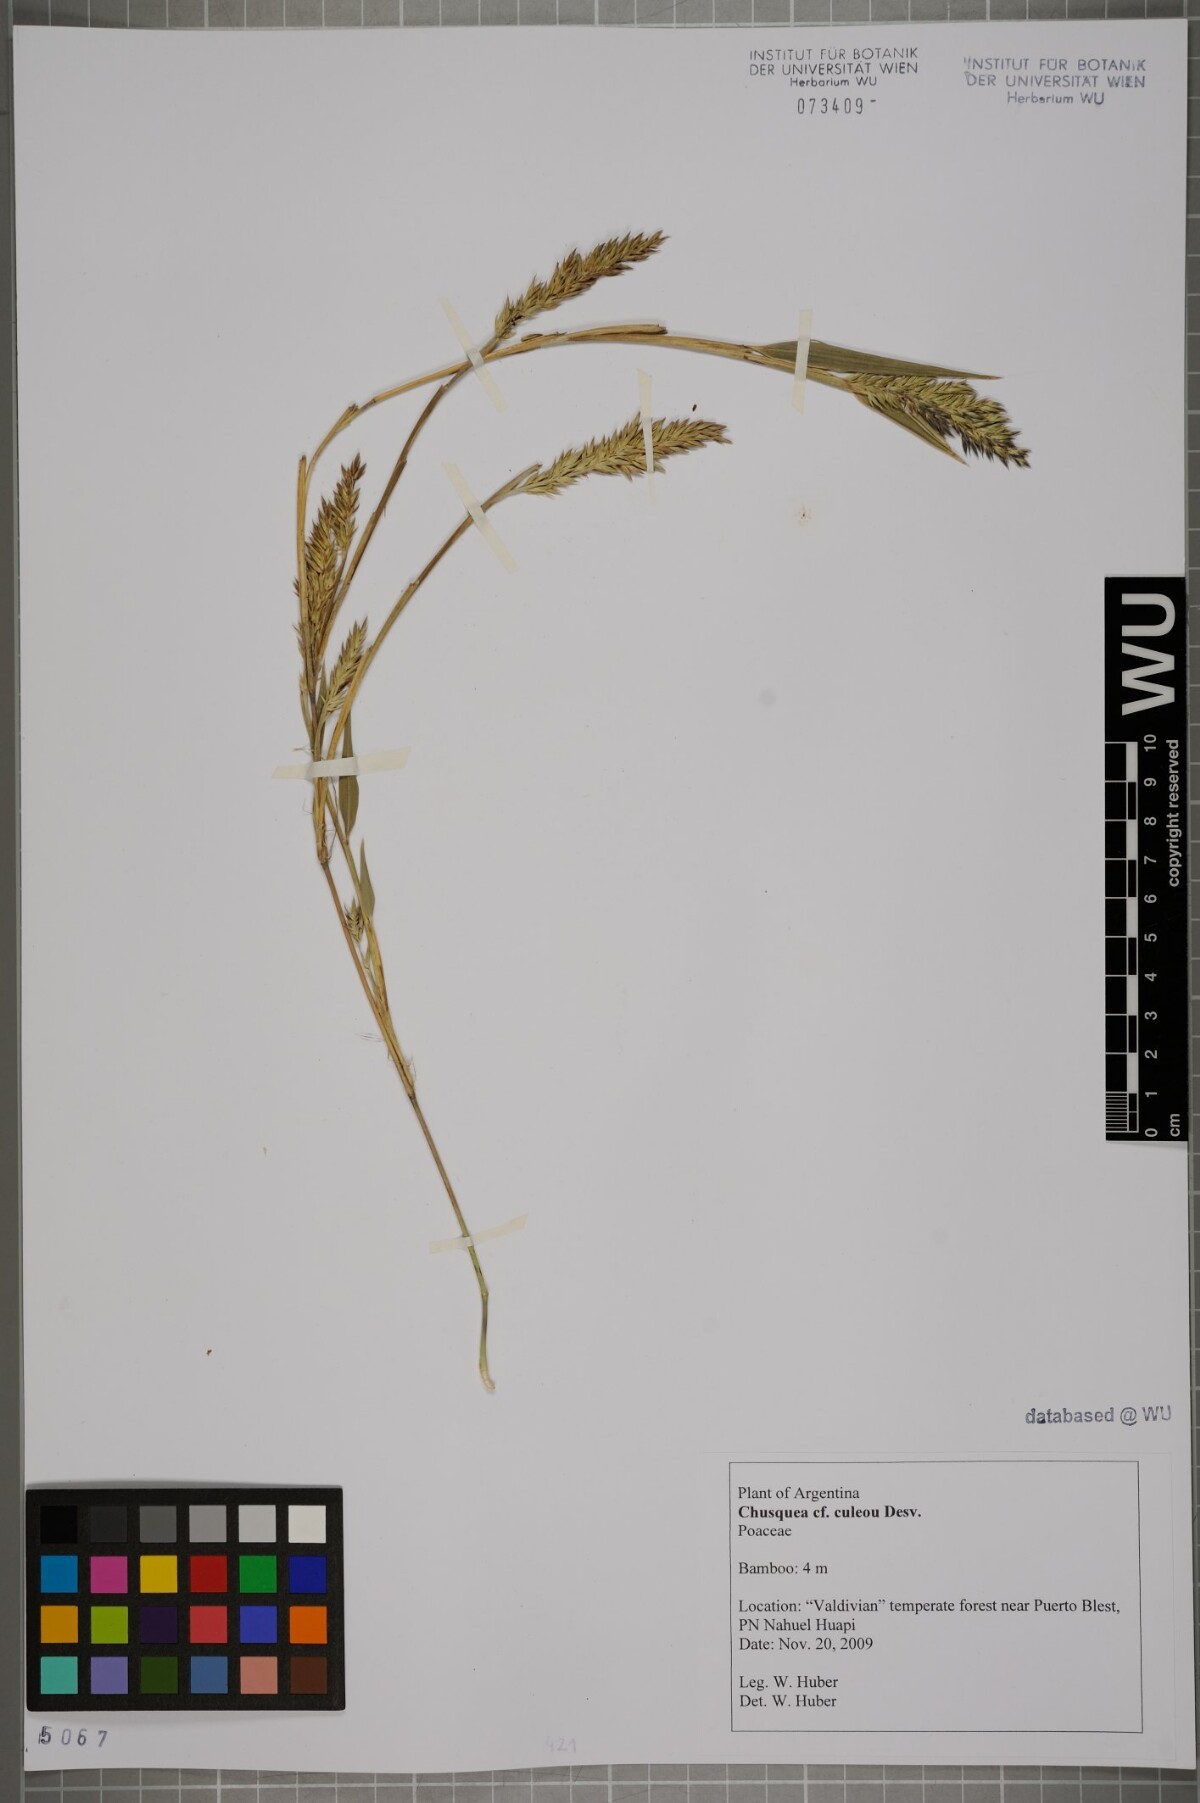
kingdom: Plantae
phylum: Tracheophyta
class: Liliopsida
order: Poales
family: Poaceae
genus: Chusquea
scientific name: Chusquea culeou
